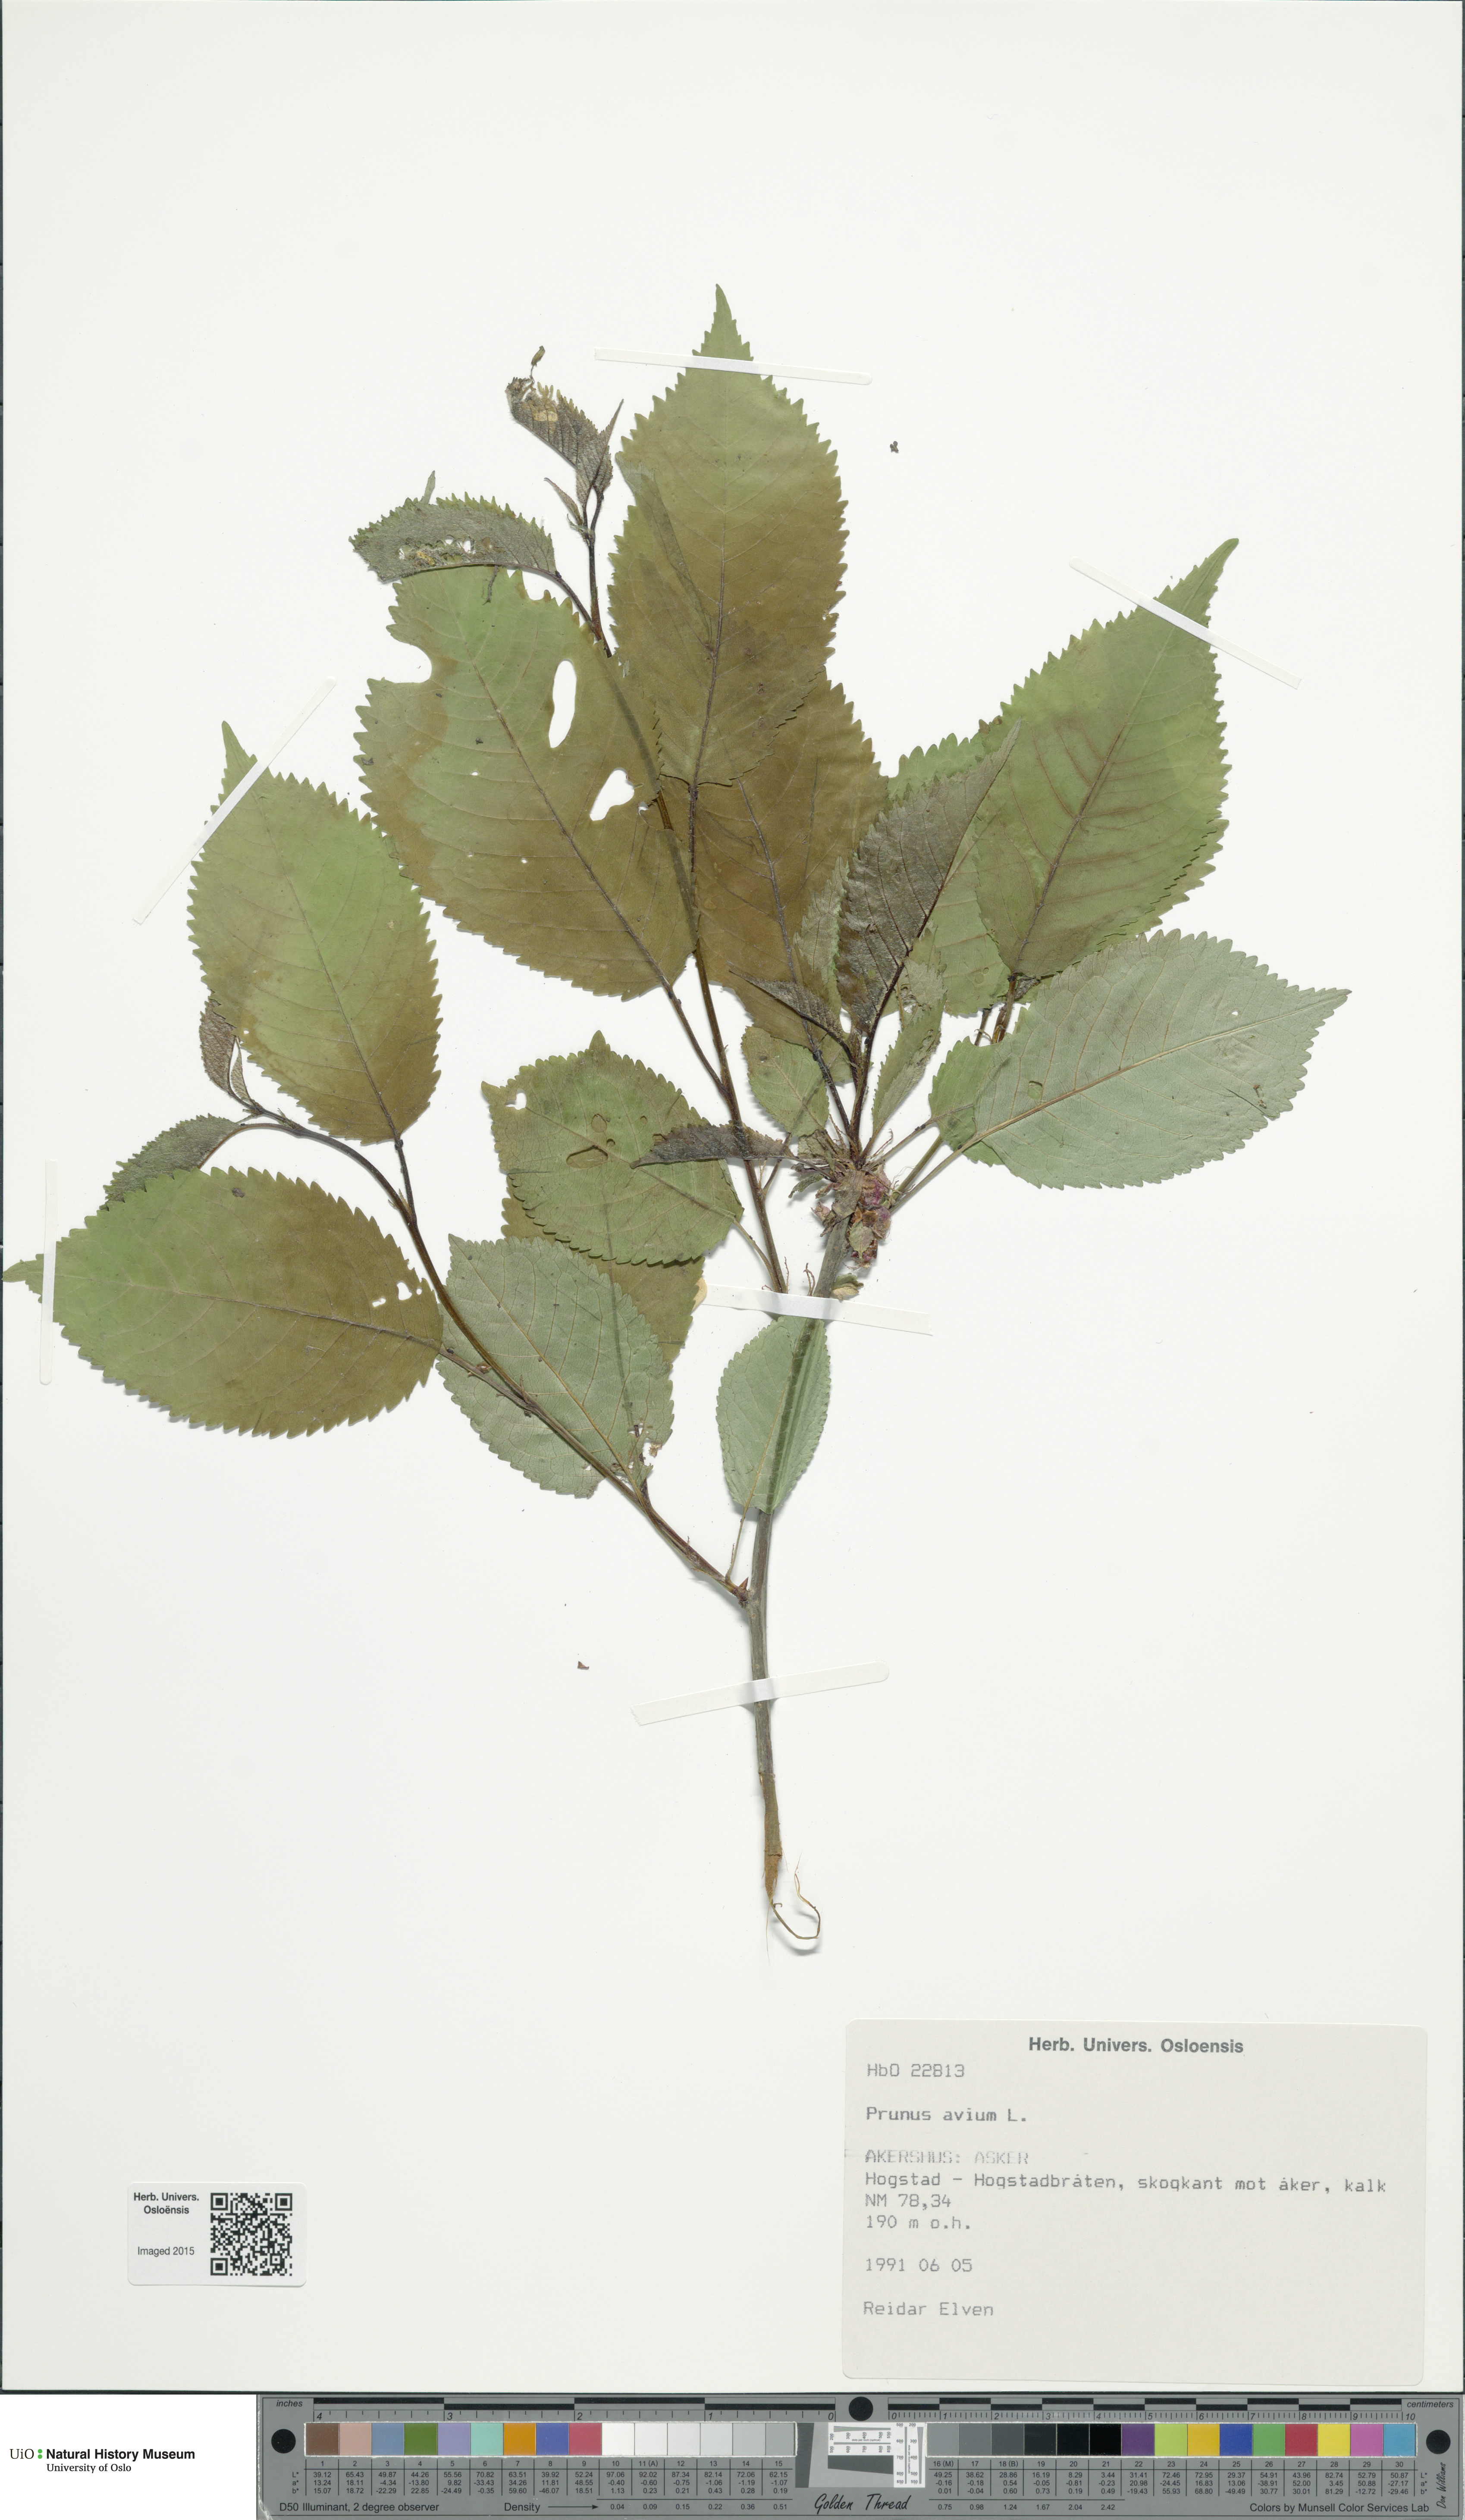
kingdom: Plantae
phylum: Tracheophyta
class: Magnoliopsida
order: Rosales
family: Rosaceae
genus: Prunus
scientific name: Prunus avium
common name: Sweet cherry
